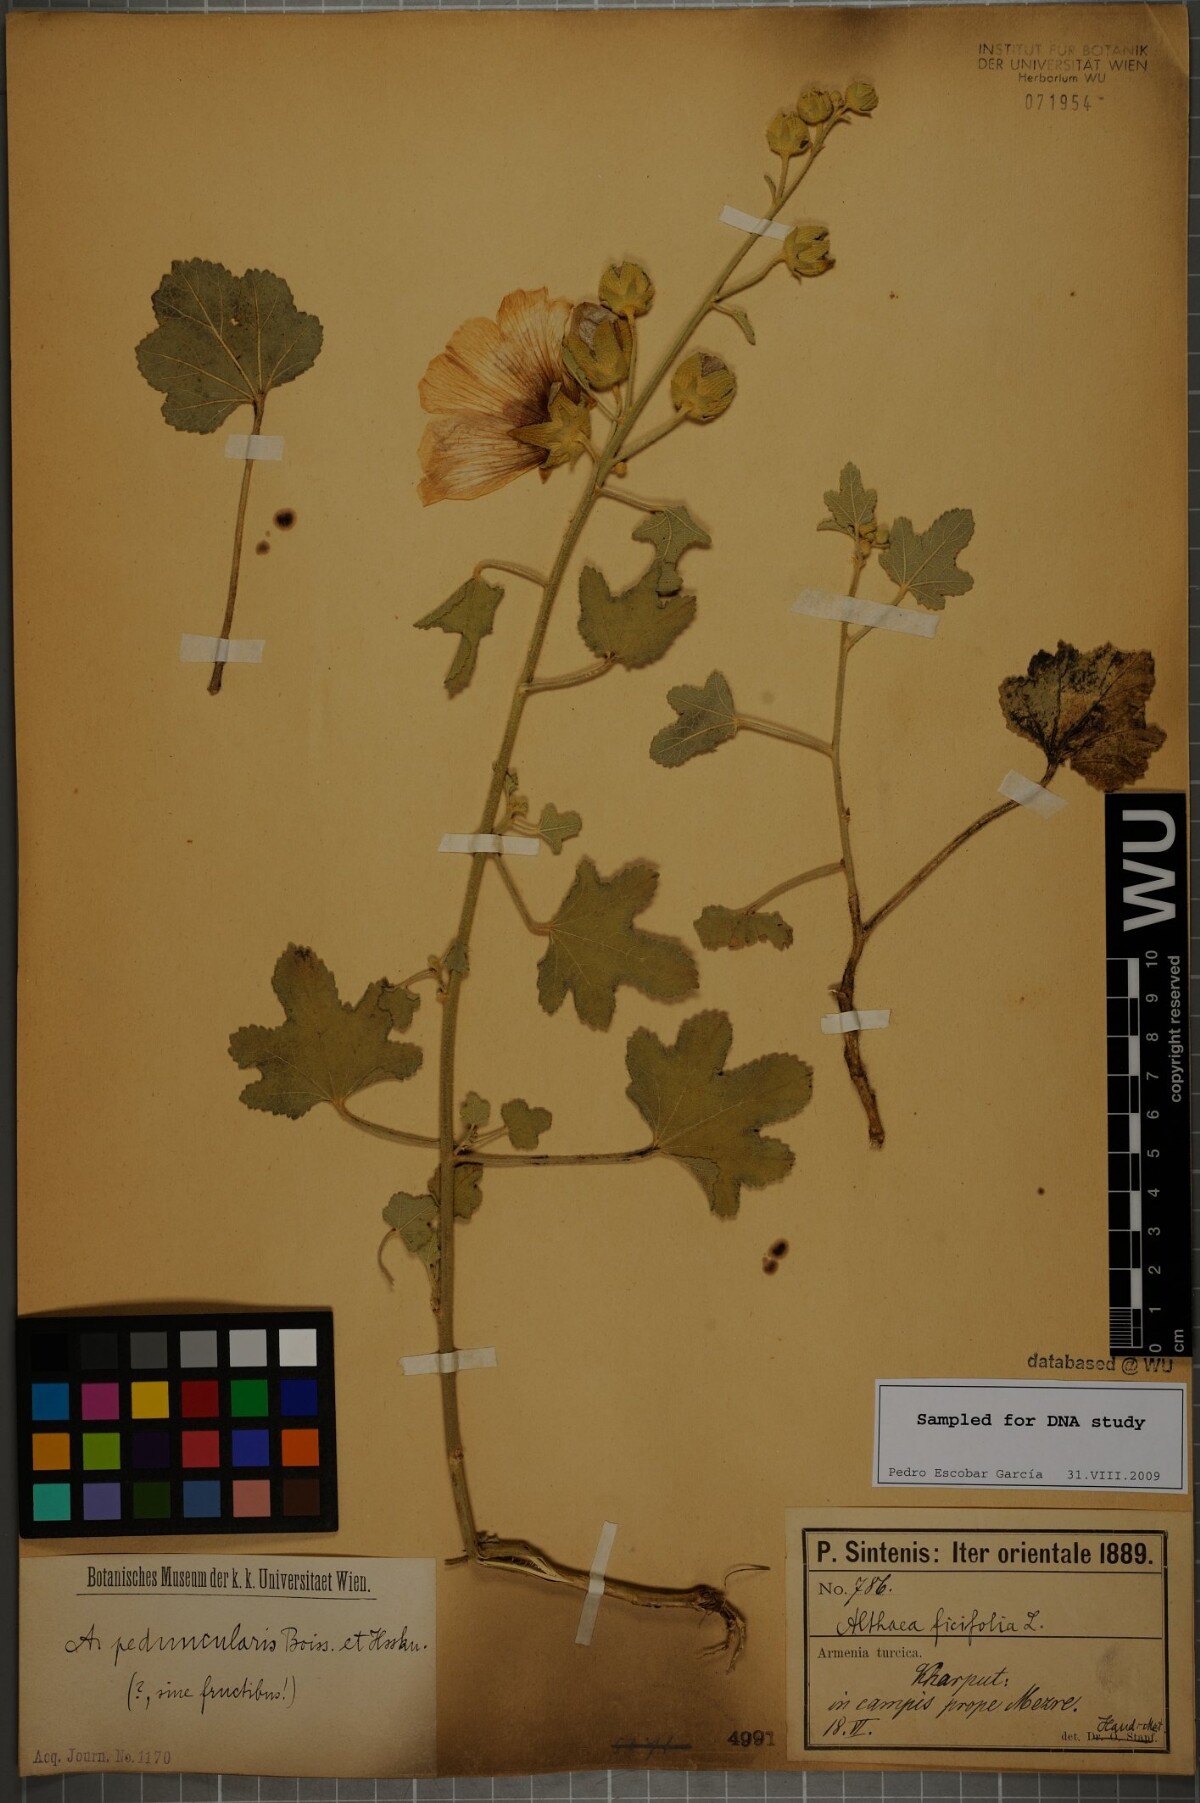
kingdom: Plantae
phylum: Tracheophyta
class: Magnoliopsida
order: Malvales
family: Malvaceae
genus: Alcea
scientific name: Alcea peduncularis
